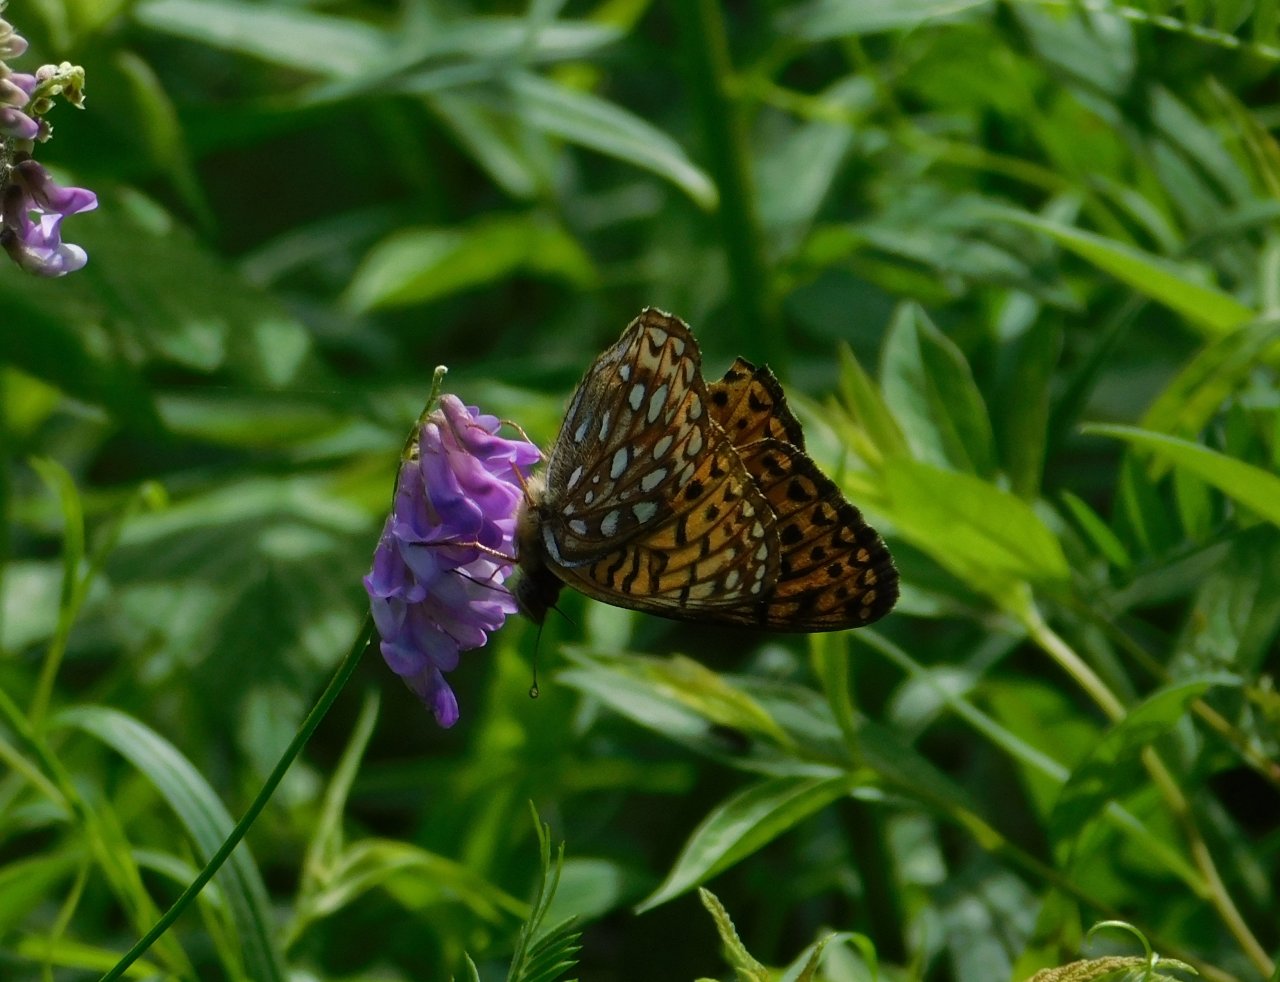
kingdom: Animalia
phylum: Arthropoda
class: Insecta
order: Lepidoptera
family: Nymphalidae
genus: Speyeria
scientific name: Speyeria atlantis
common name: Atlantis Fritillary
